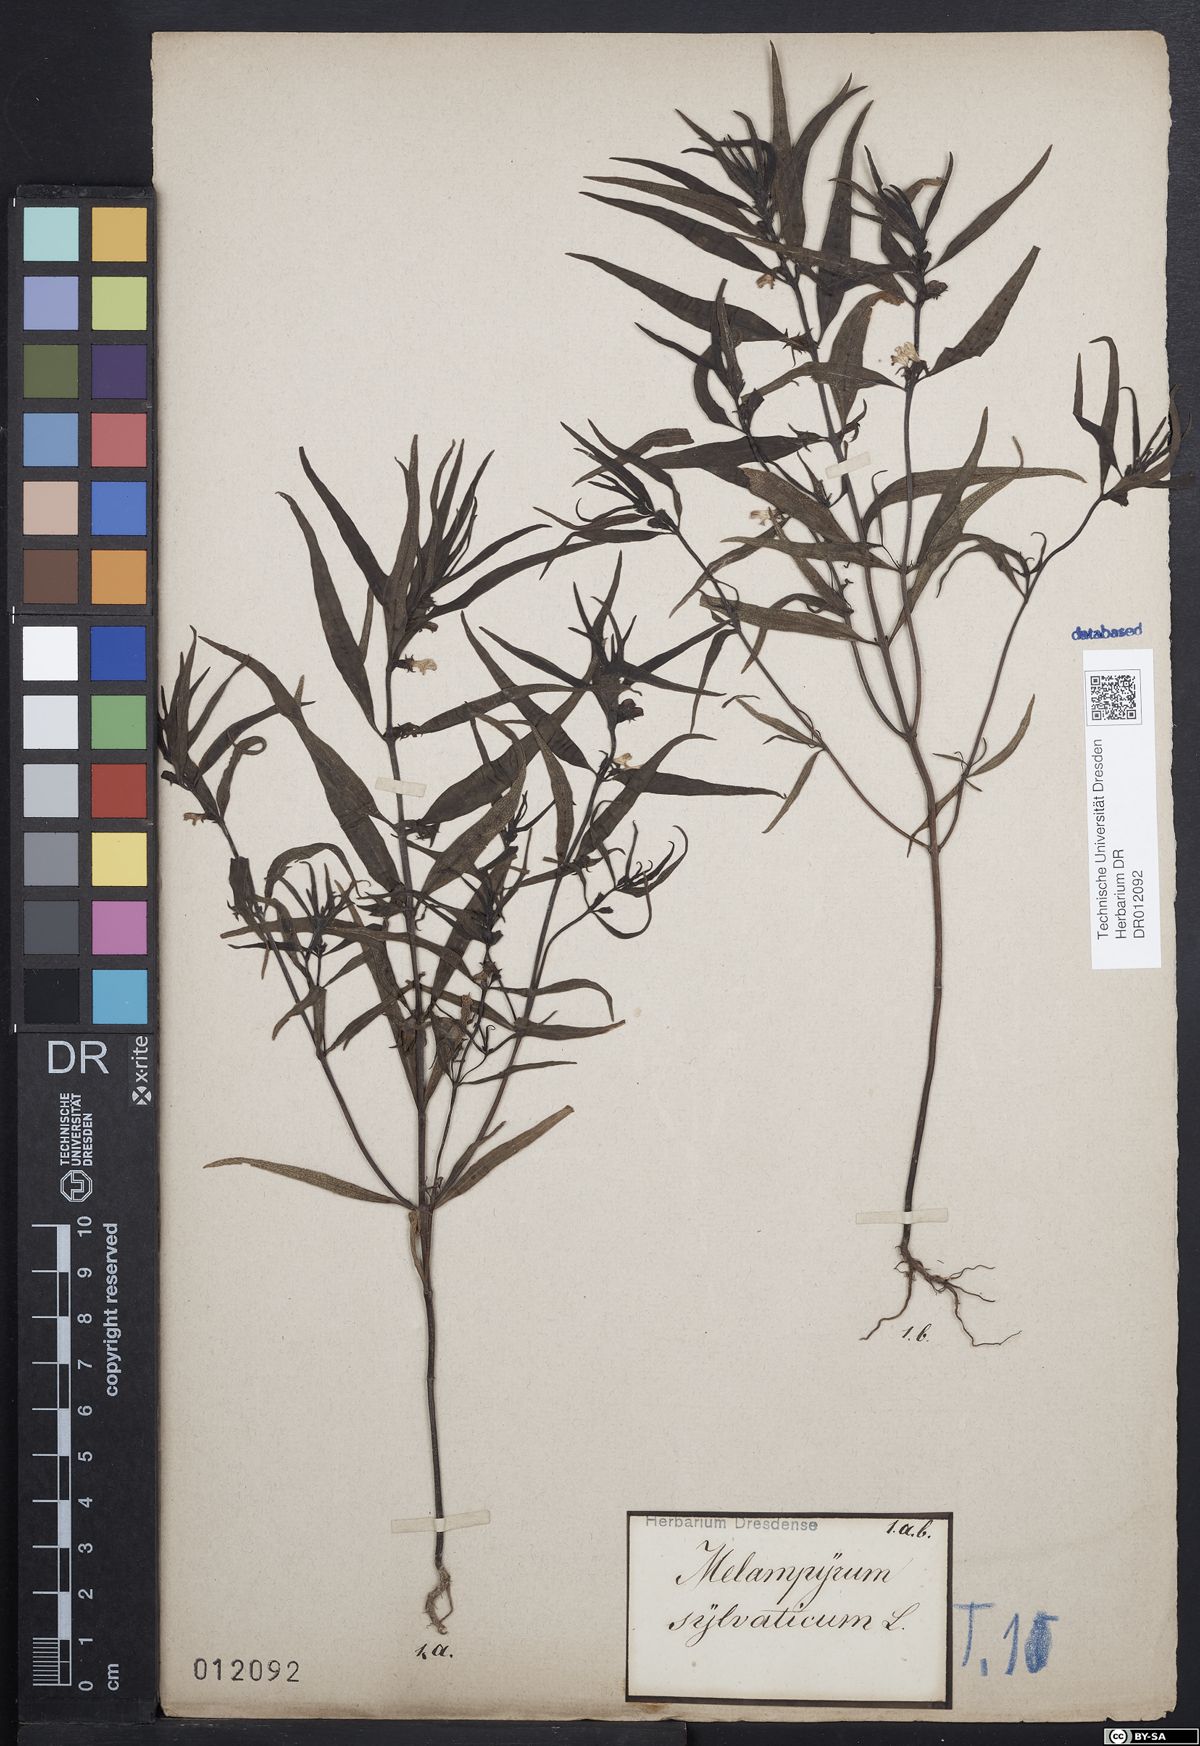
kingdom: Plantae
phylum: Tracheophyta
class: Magnoliopsida
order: Lamiales
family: Orobanchaceae
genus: Melampyrum
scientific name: Melampyrum sylvaticum
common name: Small cow-wheat
